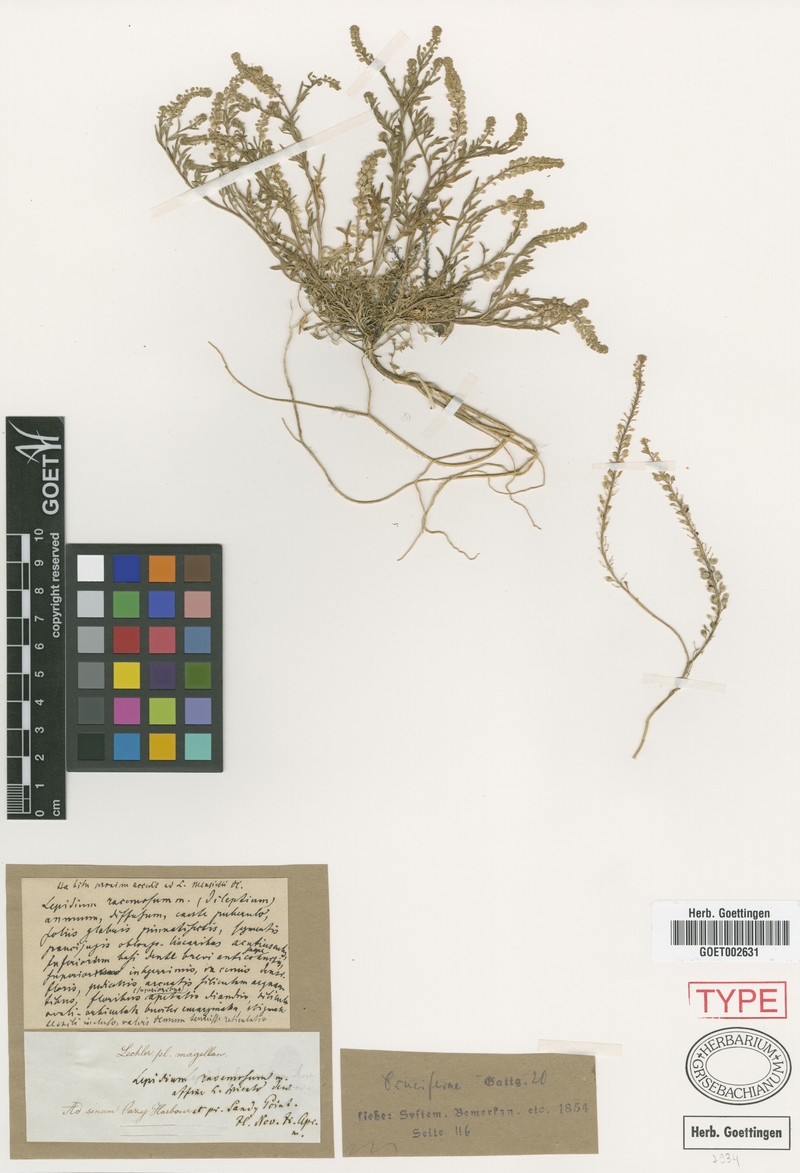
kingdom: Plantae
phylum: Tracheophyta
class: Magnoliopsida
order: Brassicales
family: Brassicaceae
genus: Lepidium
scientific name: Lepidium spicatum
